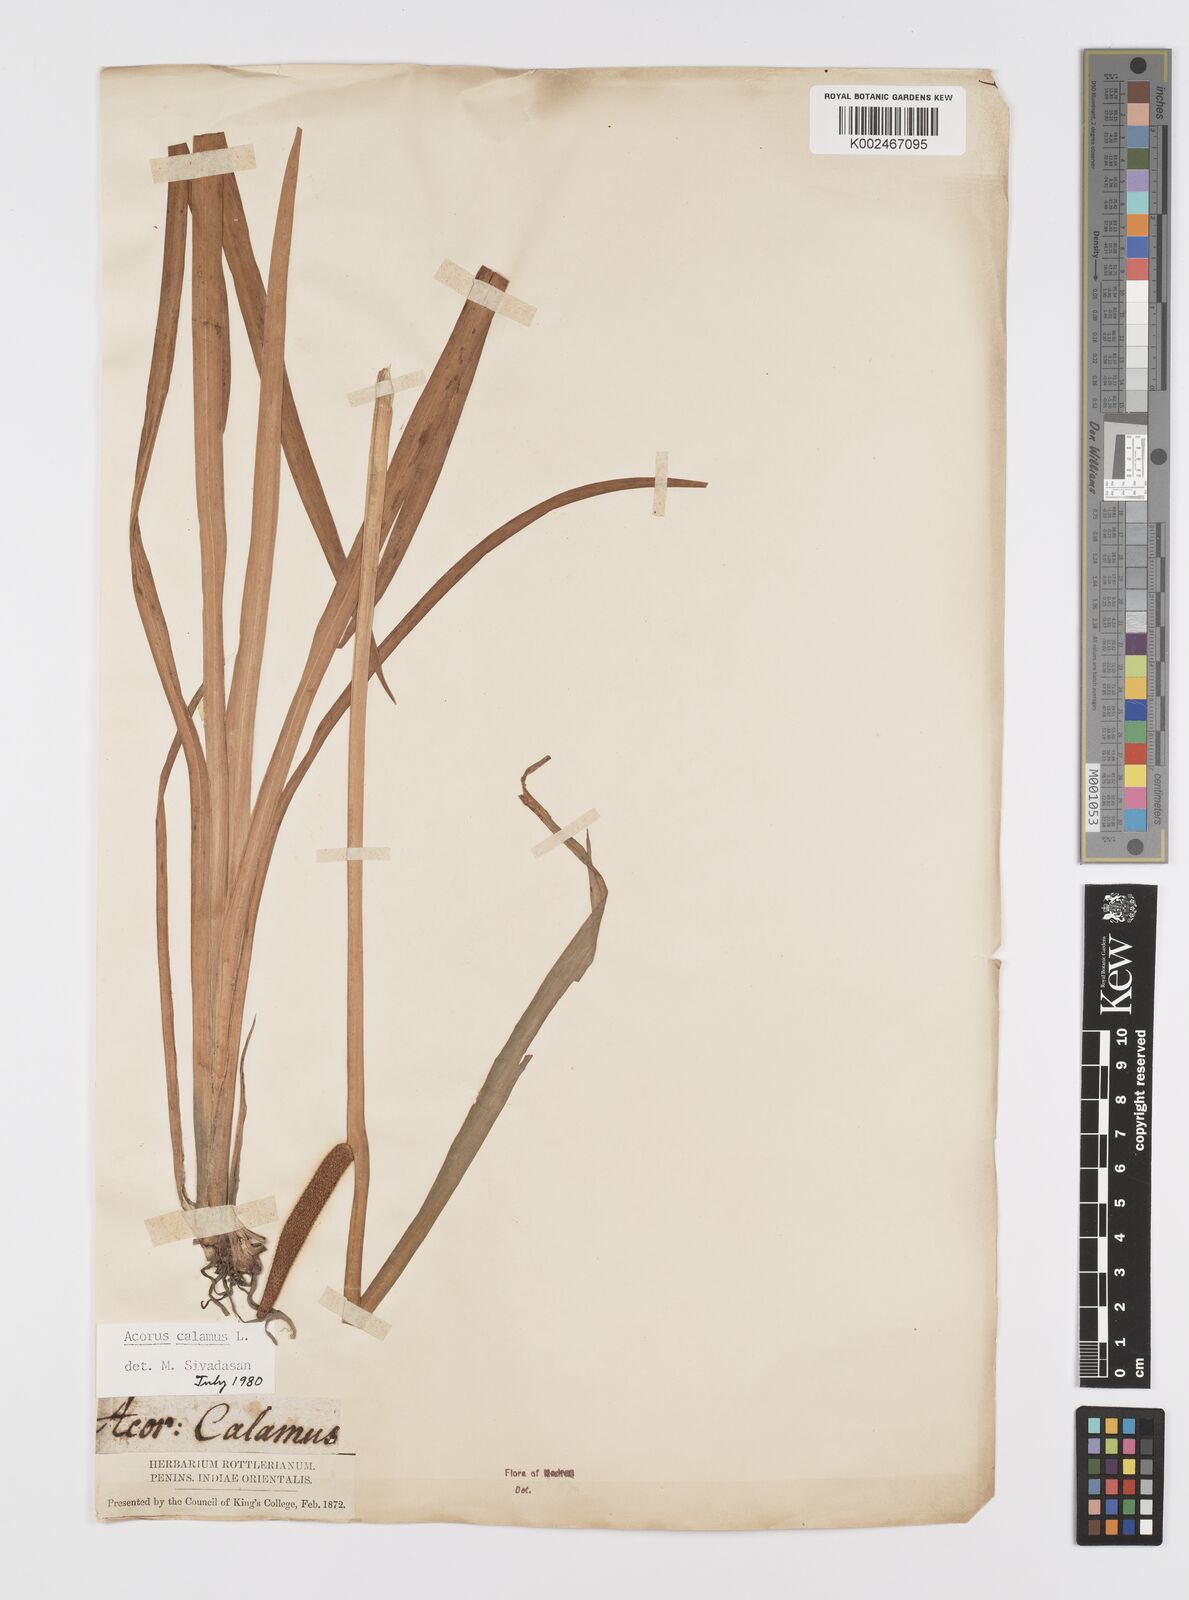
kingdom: Plantae
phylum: Tracheophyta
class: Liliopsida
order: Acorales
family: Acoraceae
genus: Acorus
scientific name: Acorus calamus
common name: Sweet-flag
